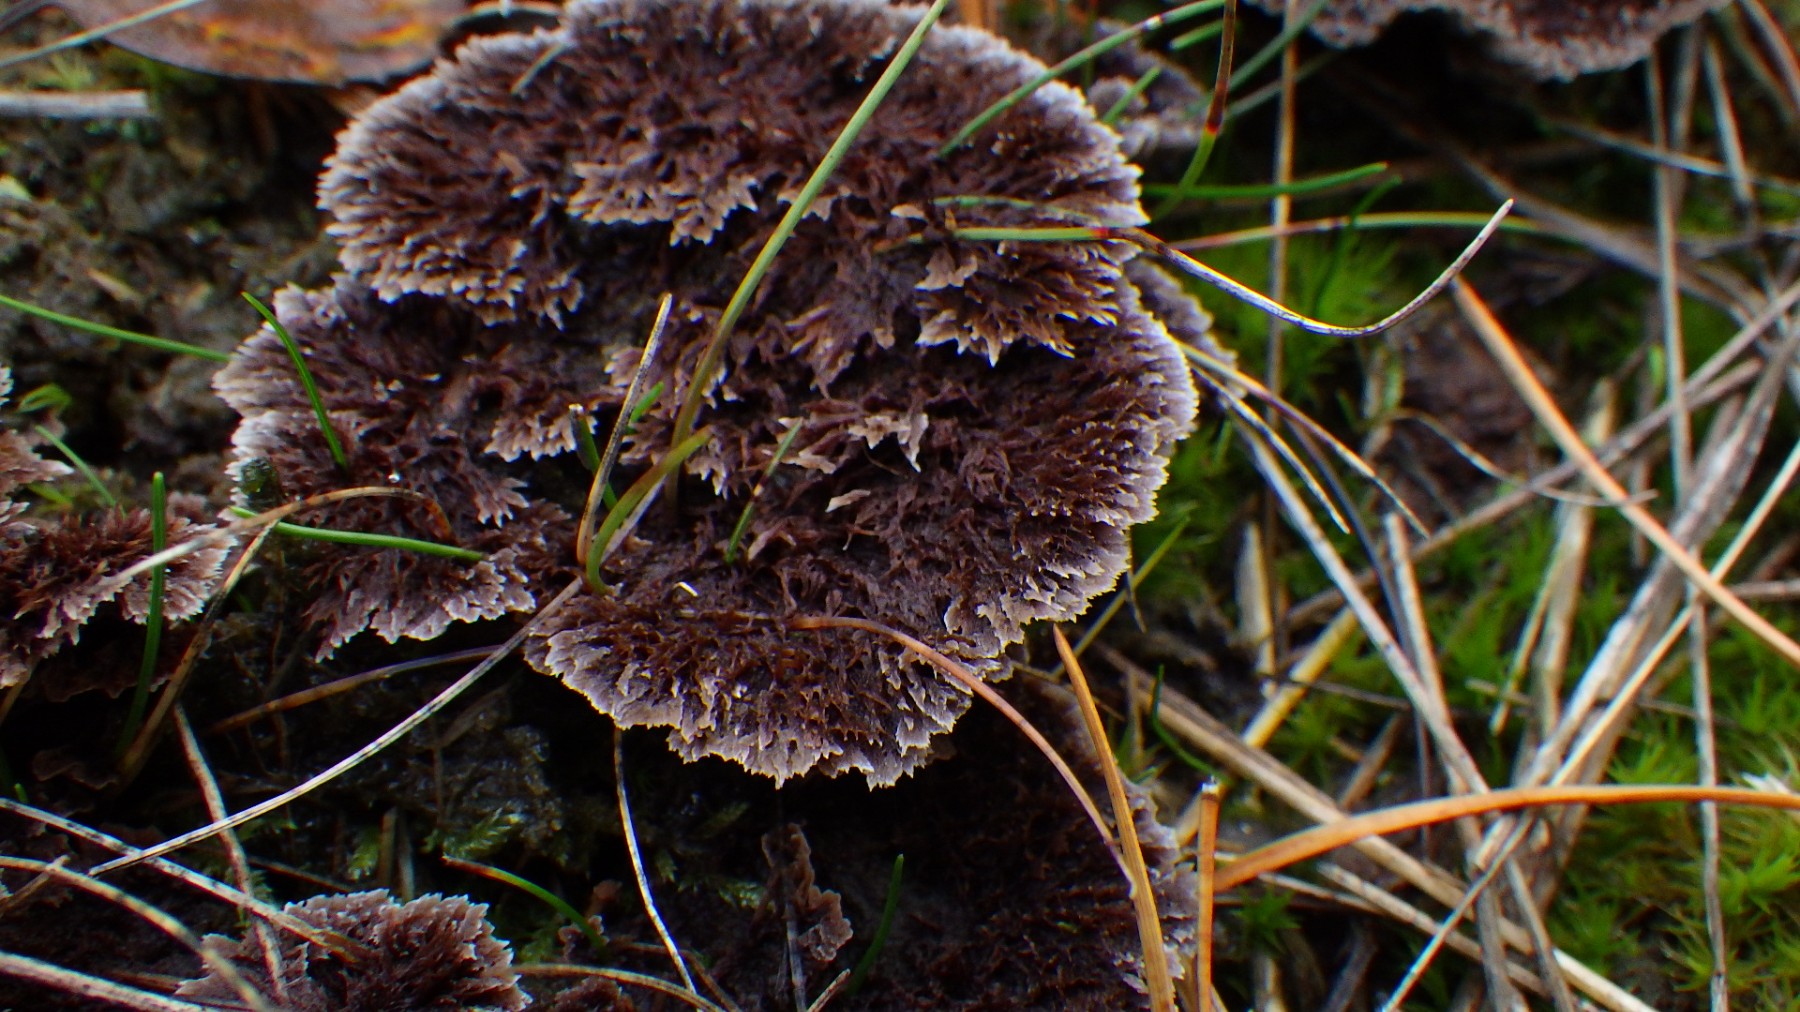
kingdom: Fungi
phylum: Basidiomycota
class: Agaricomycetes
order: Thelephorales
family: Thelephoraceae
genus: Thelephora
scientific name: Thelephora terrestris
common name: fliget frynsesvamp
